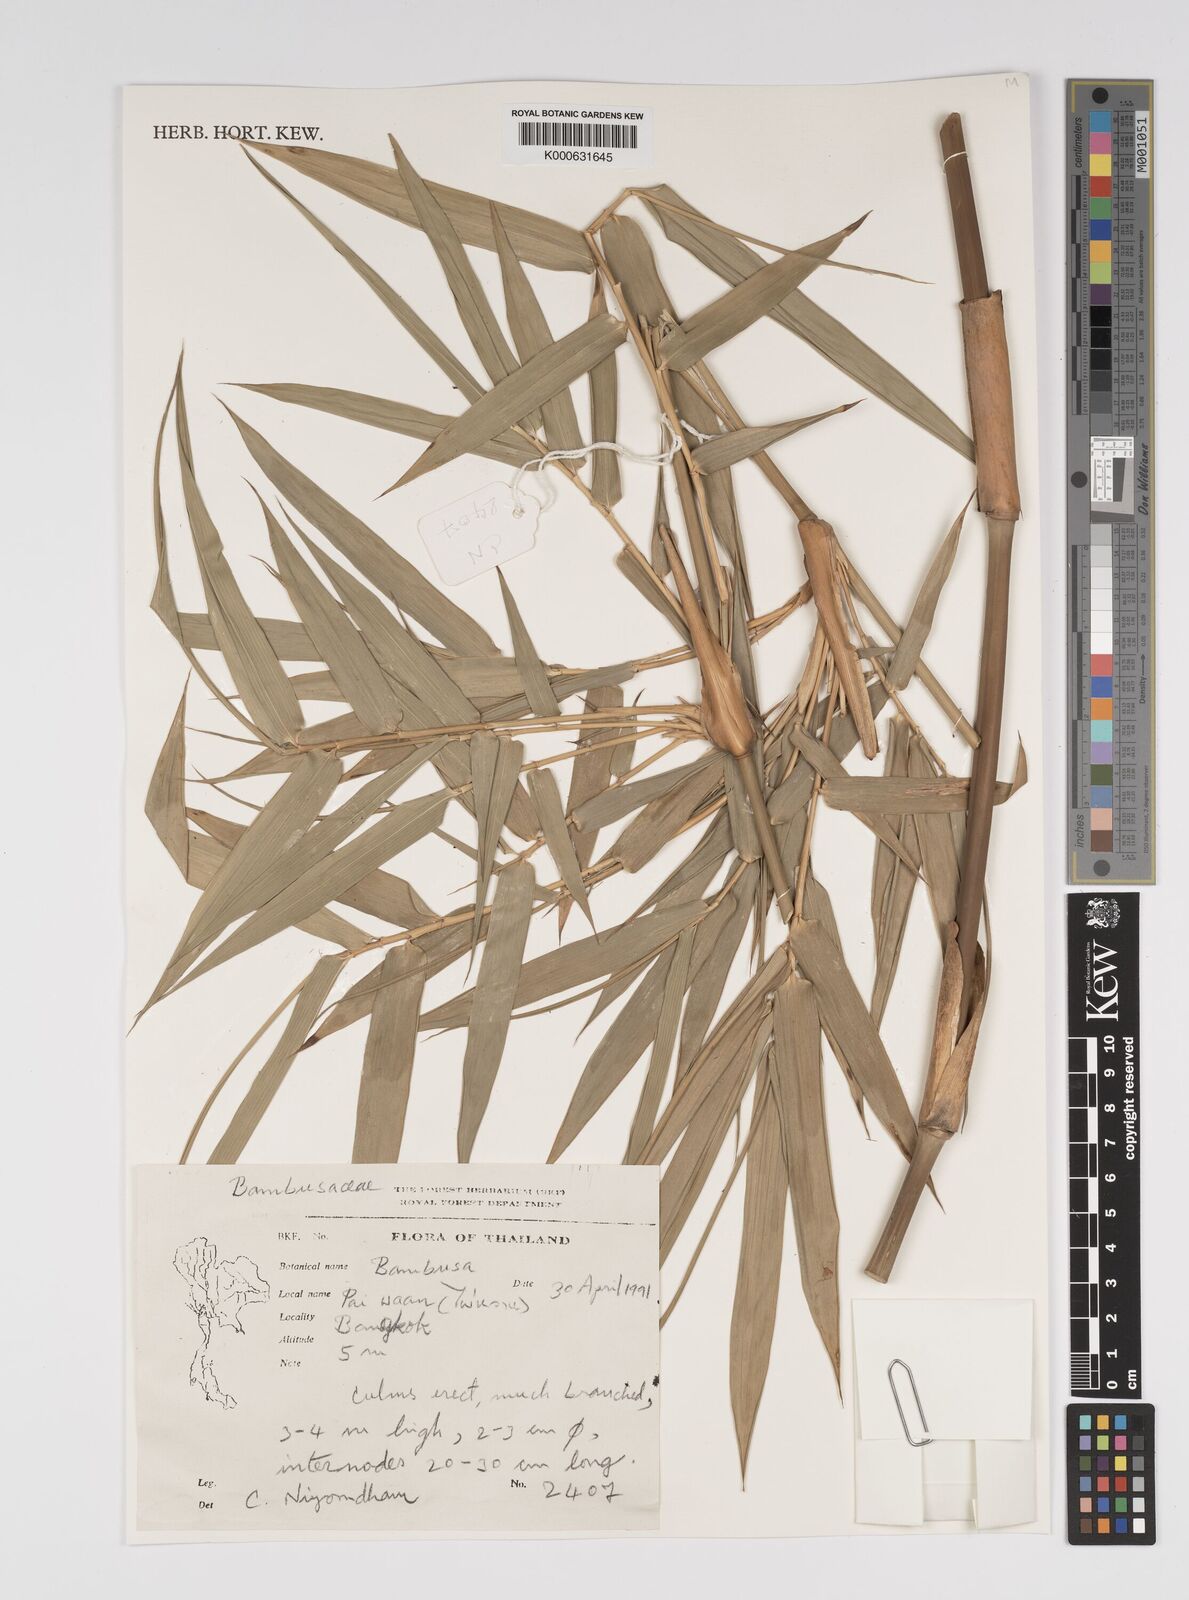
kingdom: Plantae
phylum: Tracheophyta
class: Liliopsida
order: Poales
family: Poaceae
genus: Bambusa
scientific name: Bambusa
